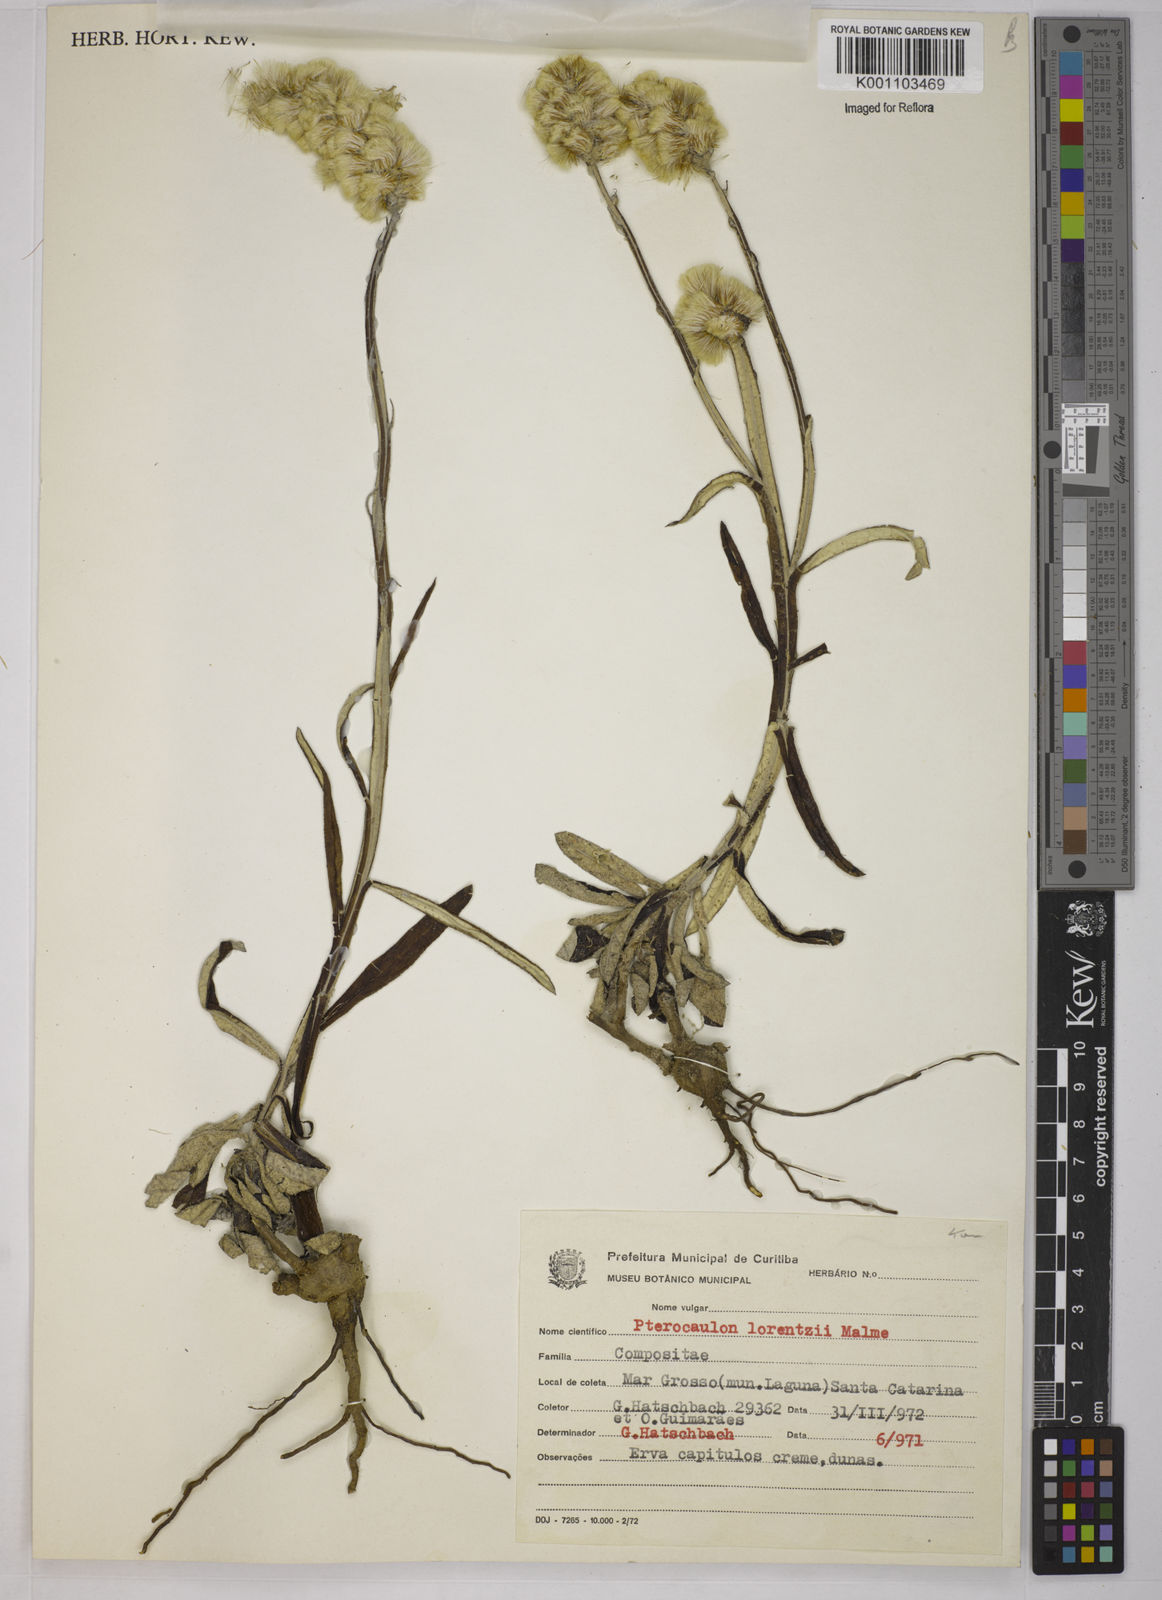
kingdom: Plantae
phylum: Tracheophyta
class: Magnoliopsida
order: Asterales
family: Asteraceae
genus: Pterocaulon
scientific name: Pterocaulon lorentzii
